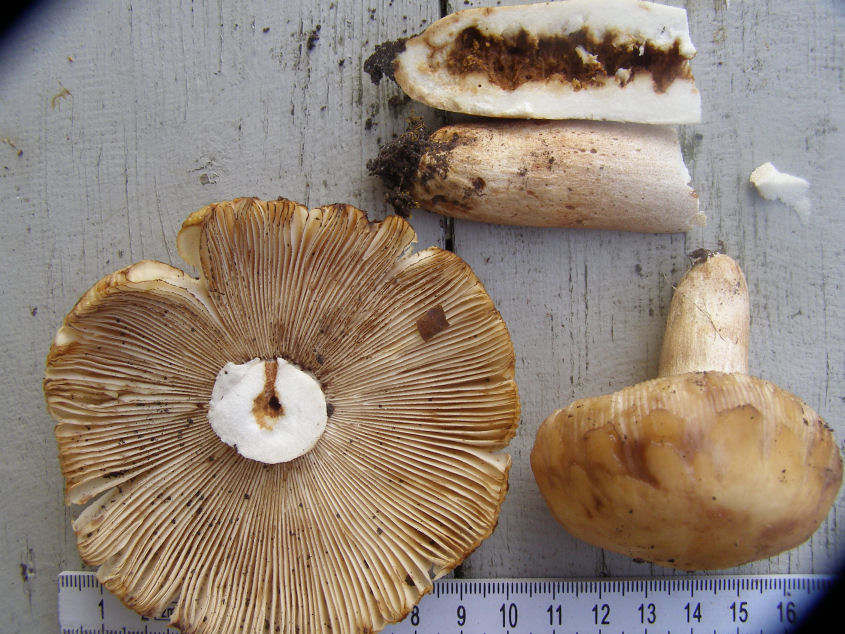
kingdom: Fungi
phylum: Basidiomycota
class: Agaricomycetes
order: Russulales
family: Russulaceae
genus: Russula
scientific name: Russula illota
